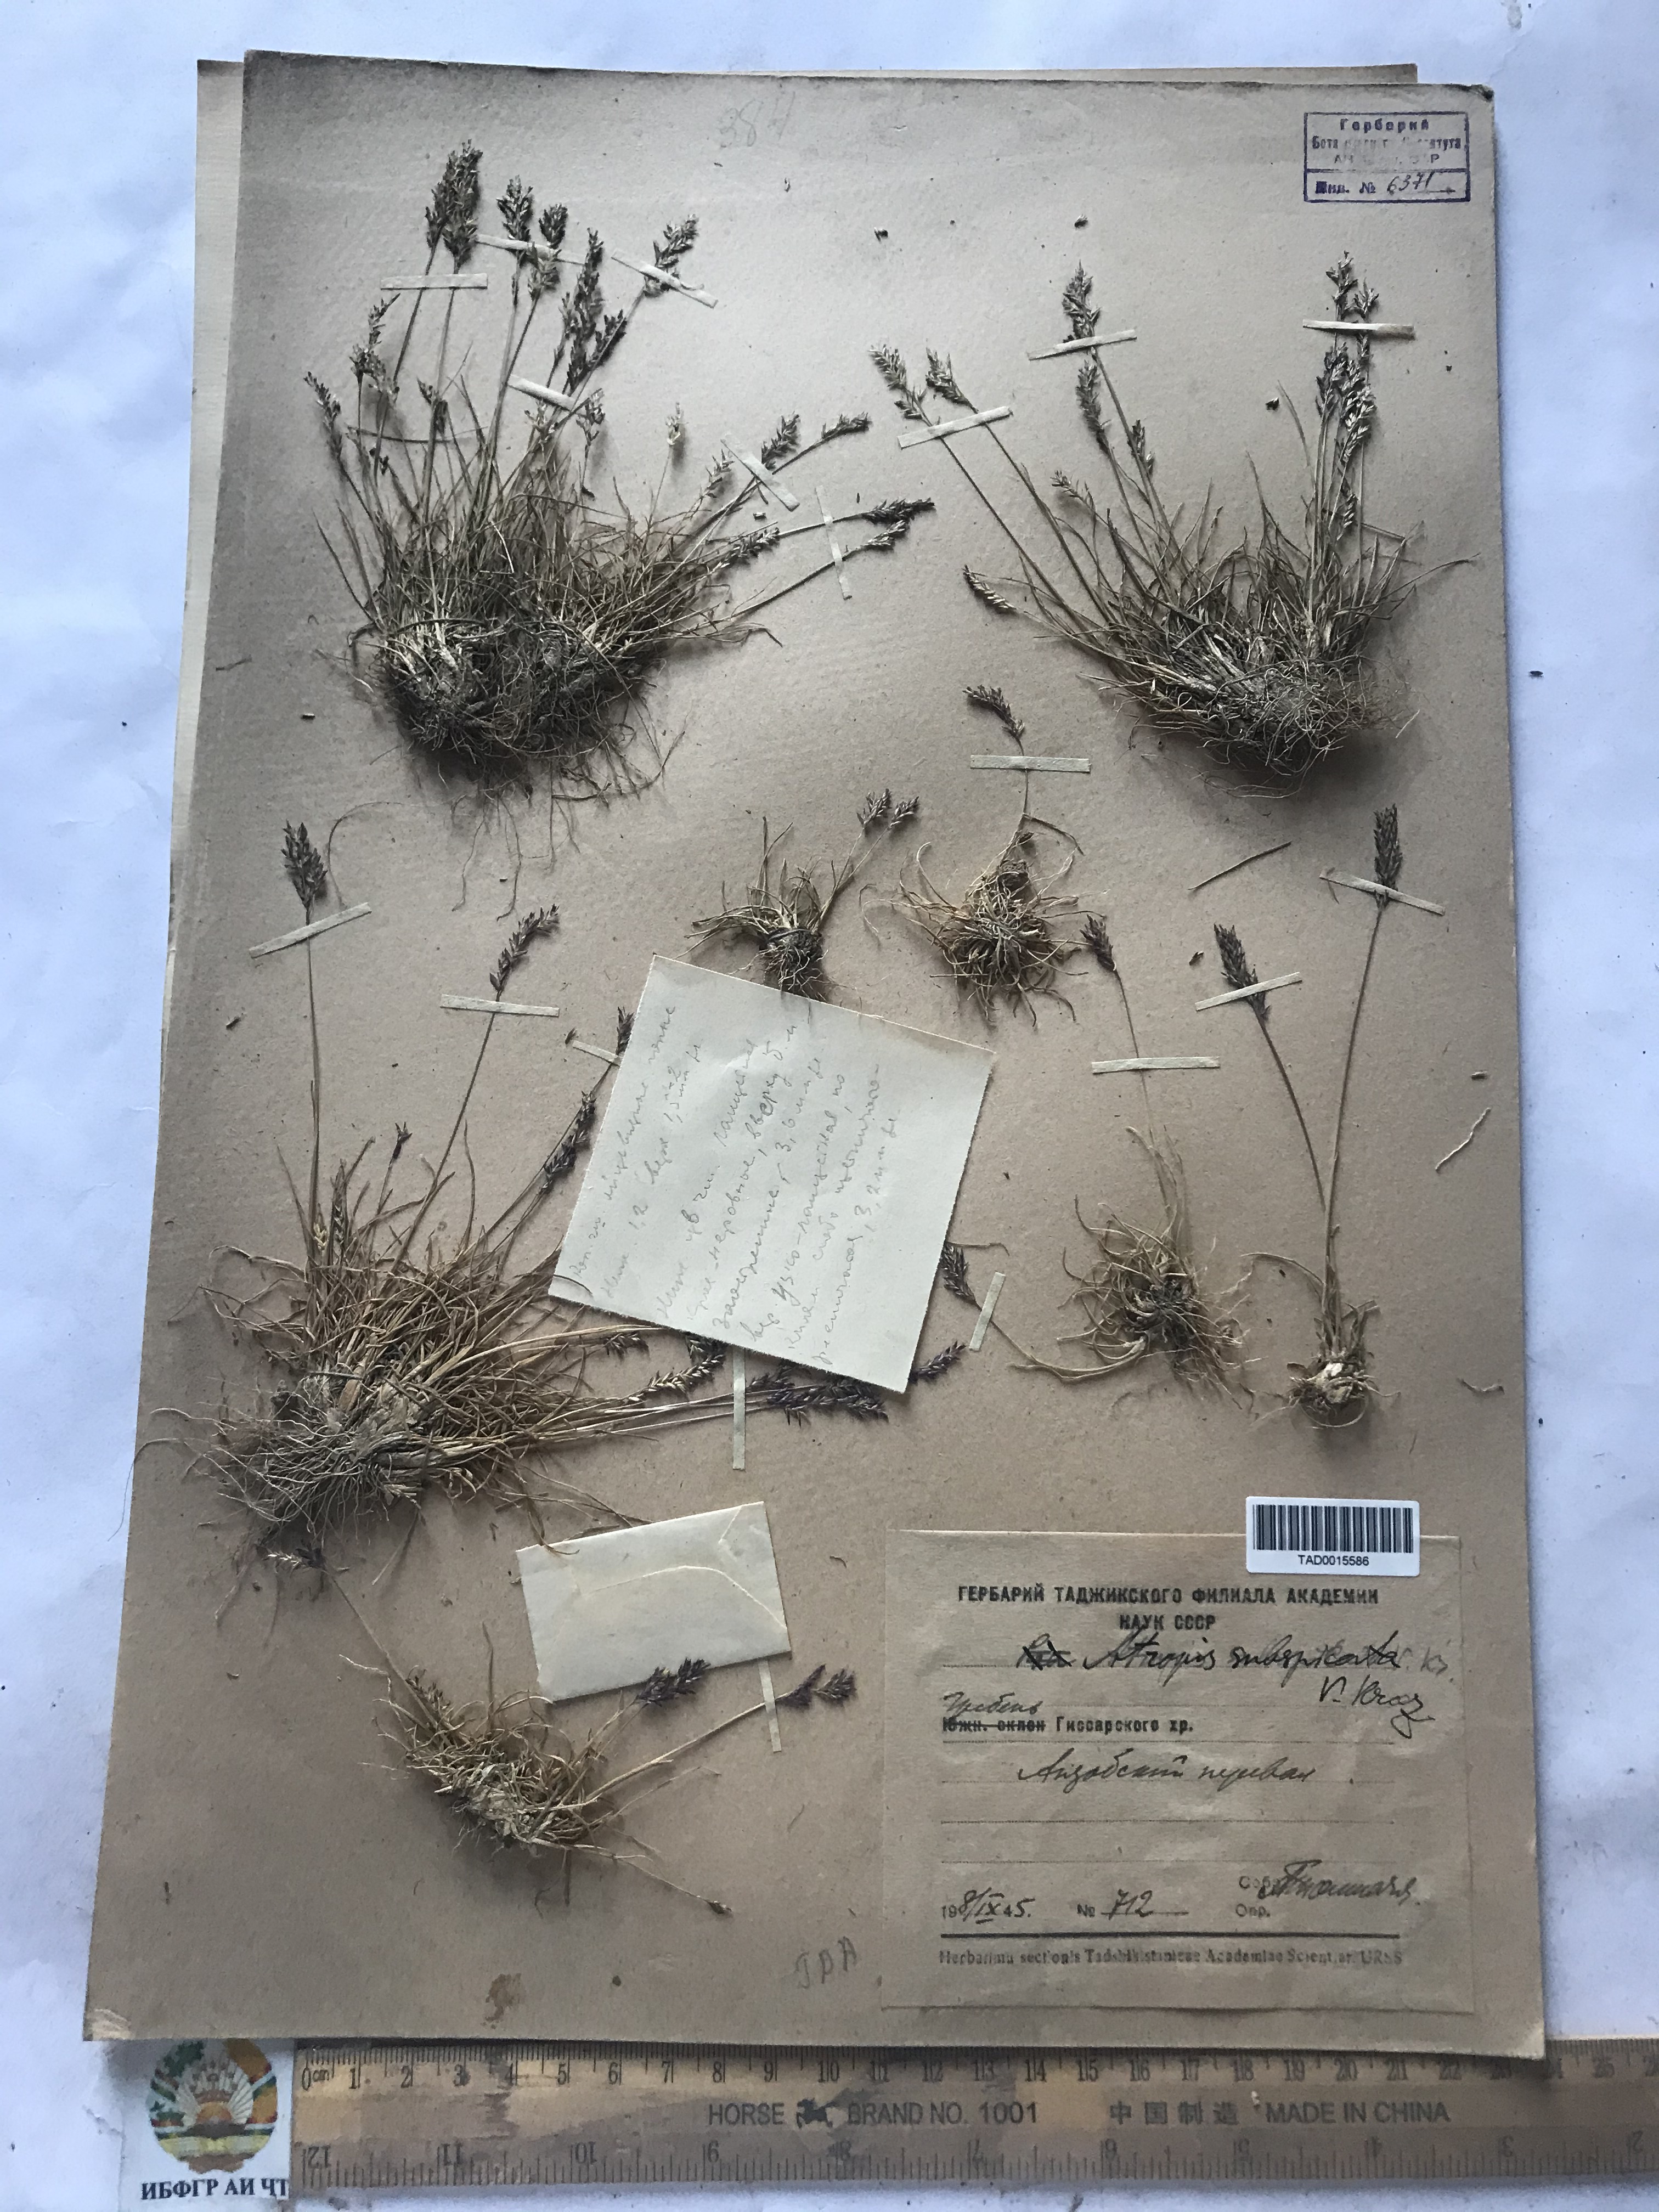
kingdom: Plantae
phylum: Tracheophyta
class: Liliopsida
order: Poales
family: Poaceae
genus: Puccinellia
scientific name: Puccinellia subspicata
